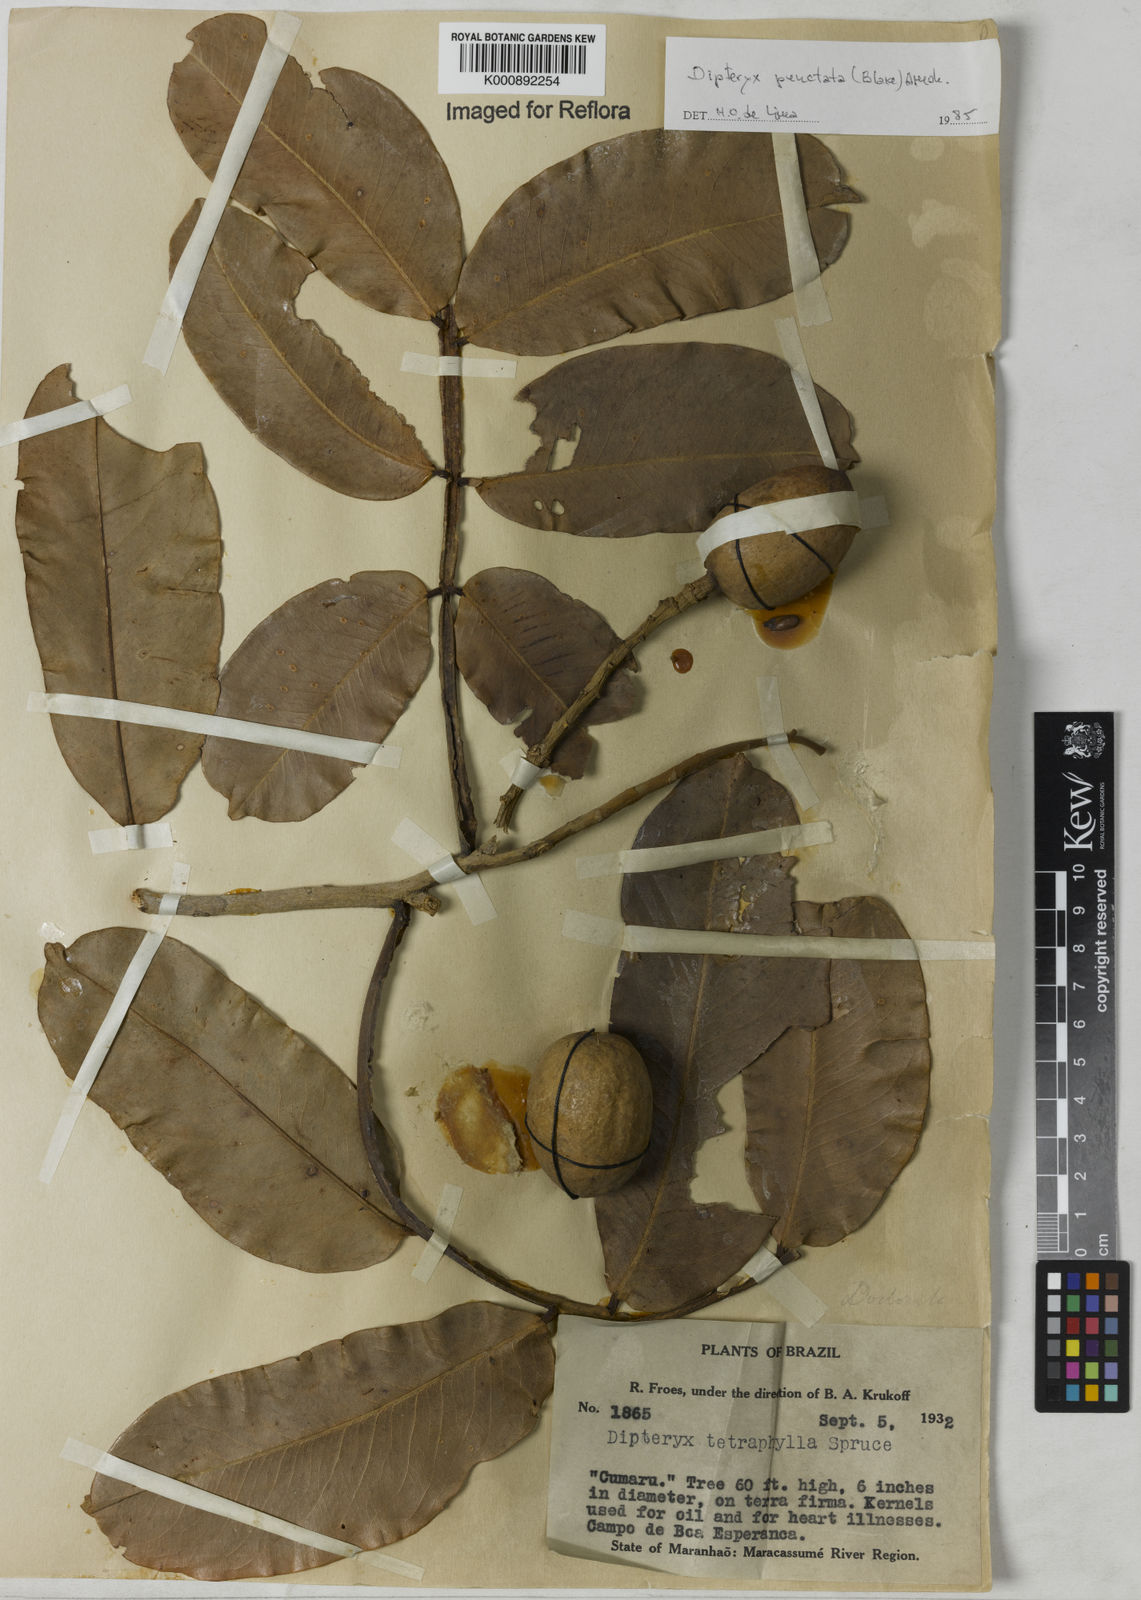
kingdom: Plantae
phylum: Tracheophyta
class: Magnoliopsida
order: Fabales
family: Fabaceae
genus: Dipteryx
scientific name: Dipteryx punctata
